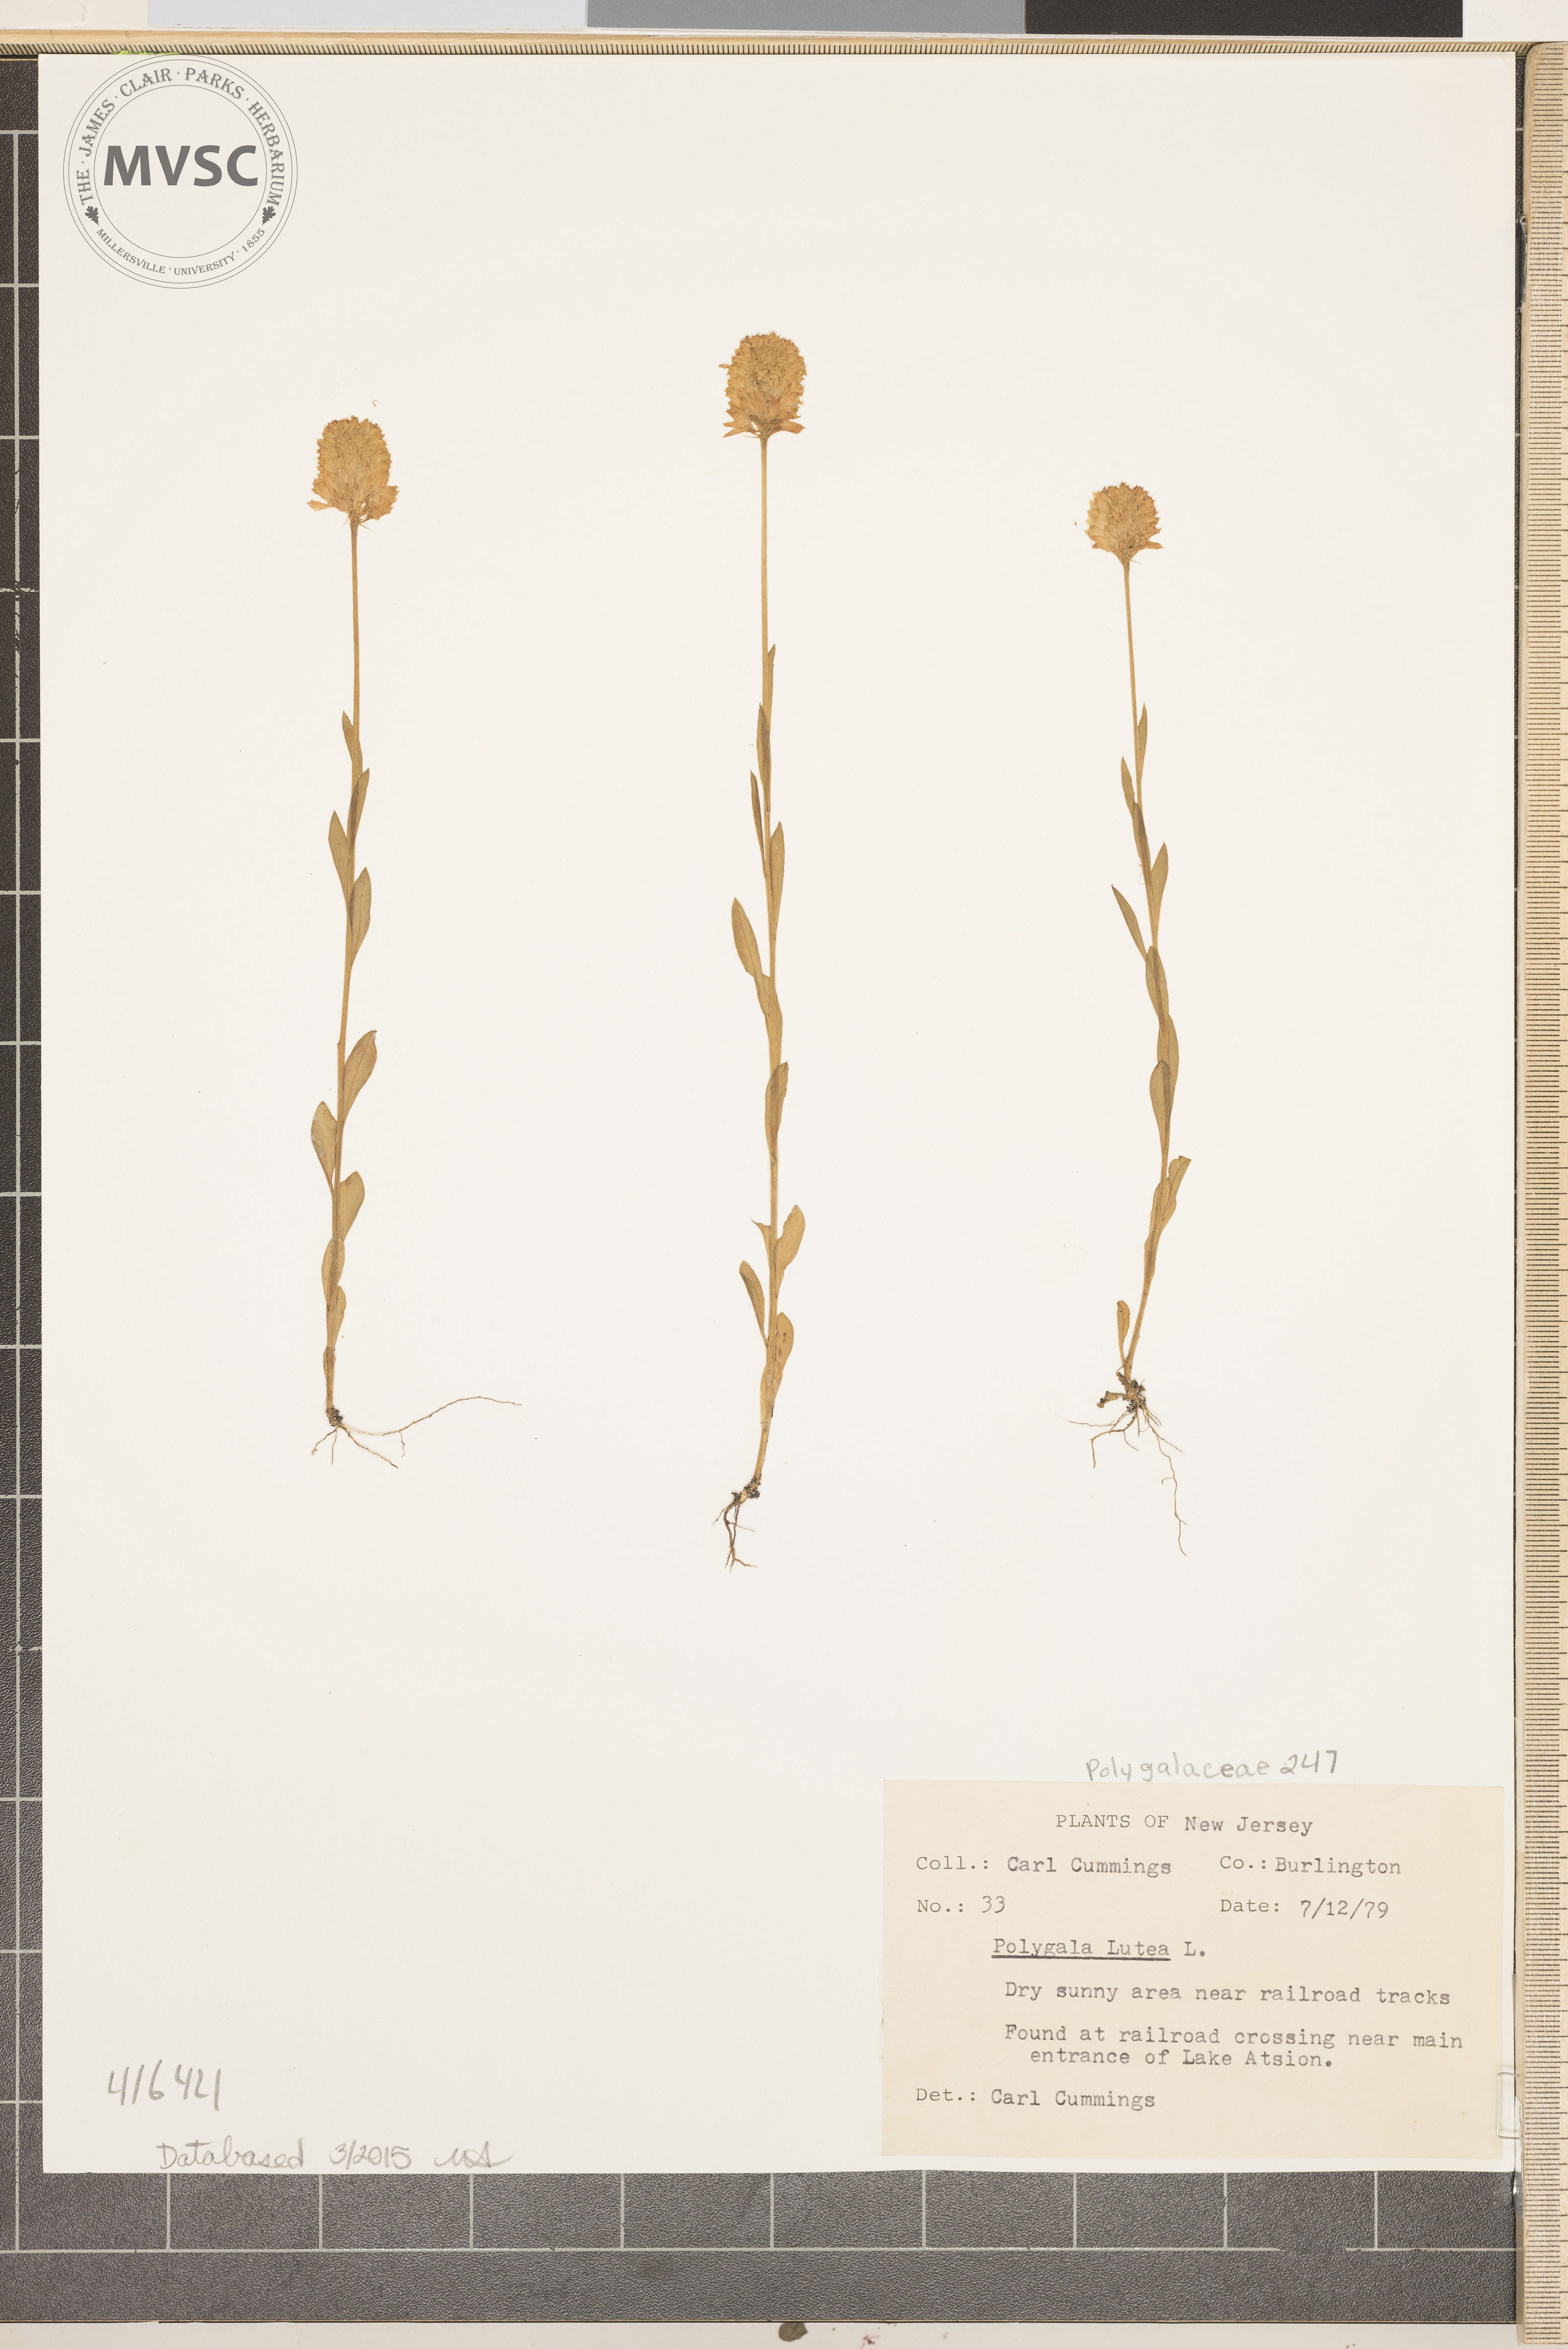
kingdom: Plantae
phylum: Tracheophyta
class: Magnoliopsida
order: Fabales
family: Polygalaceae
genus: Polygala
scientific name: Polygala lutea
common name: Orange Milkwort
